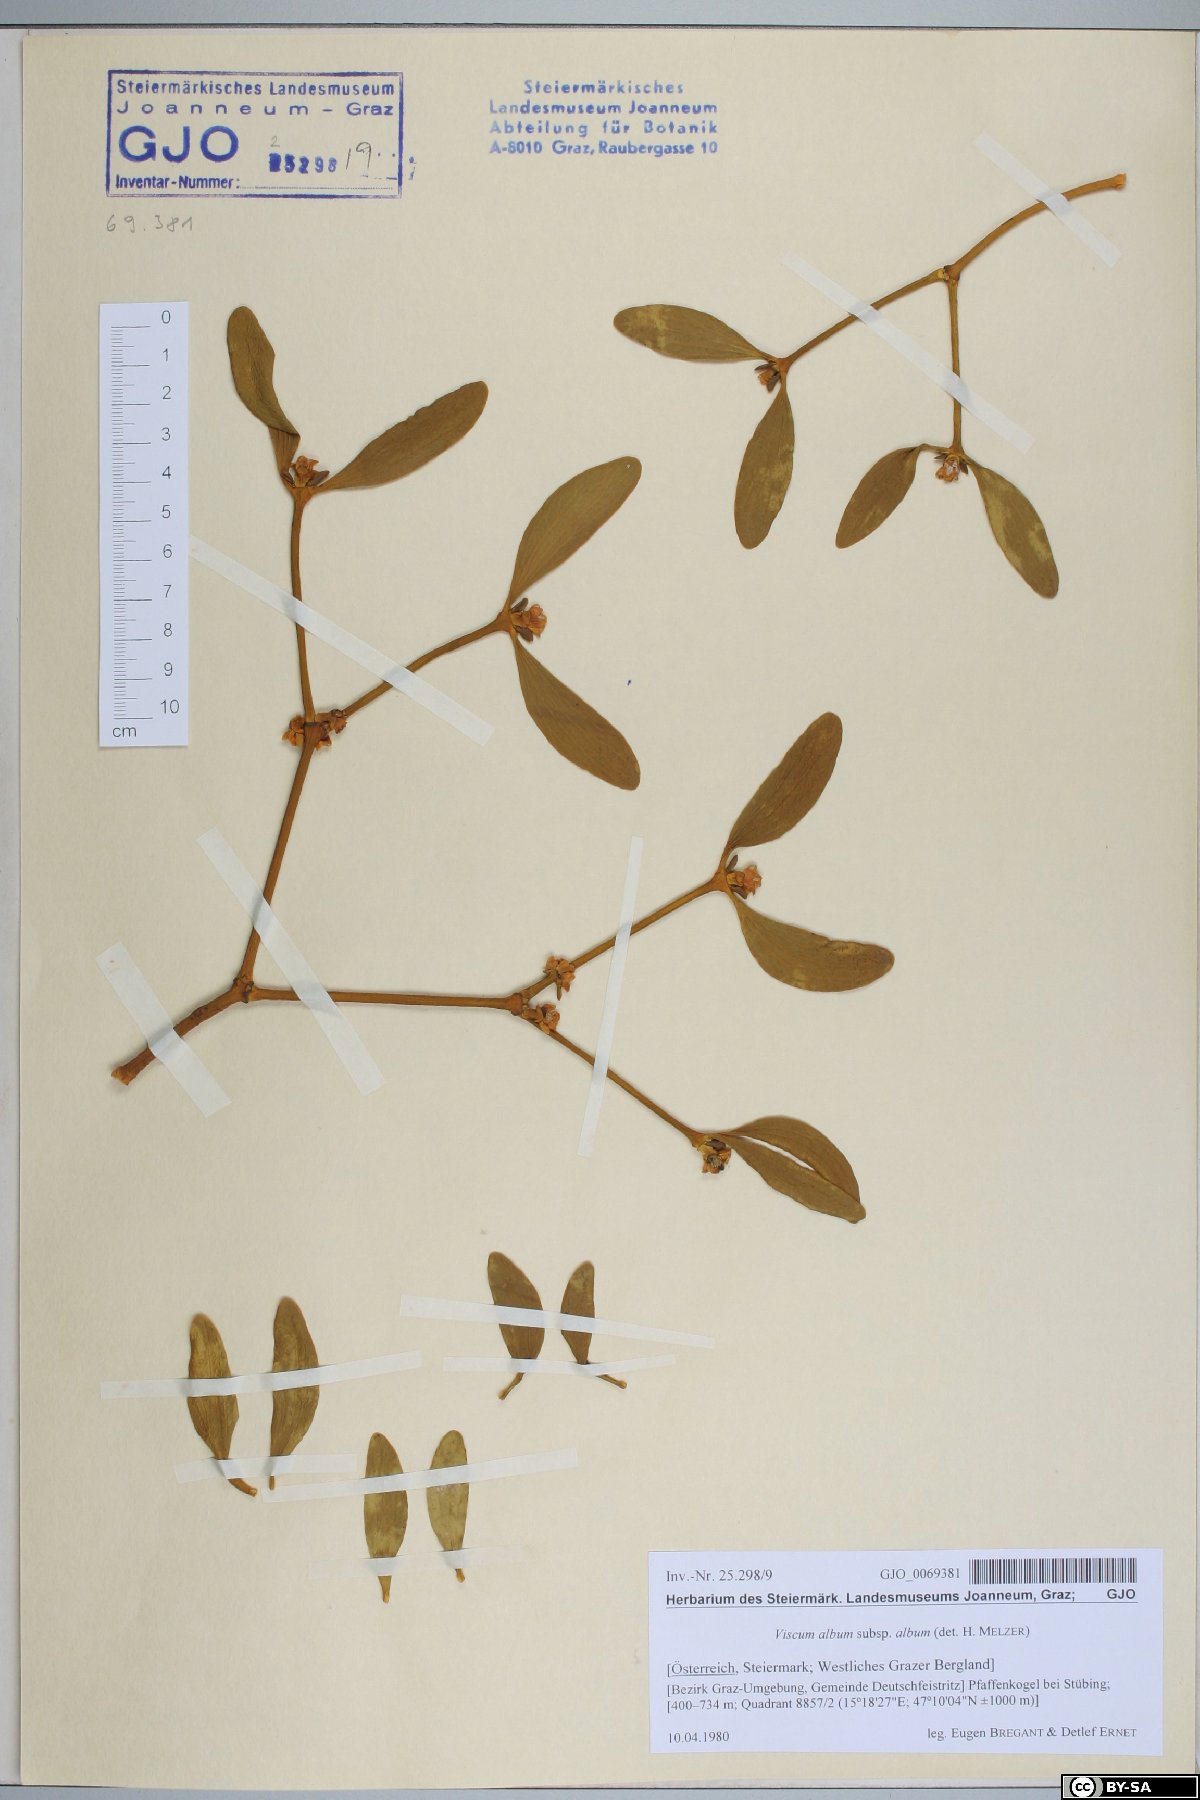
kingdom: Plantae
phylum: Tracheophyta
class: Magnoliopsida
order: Santalales
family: Viscaceae
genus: Viscum
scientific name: Viscum album
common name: Mistletoe
